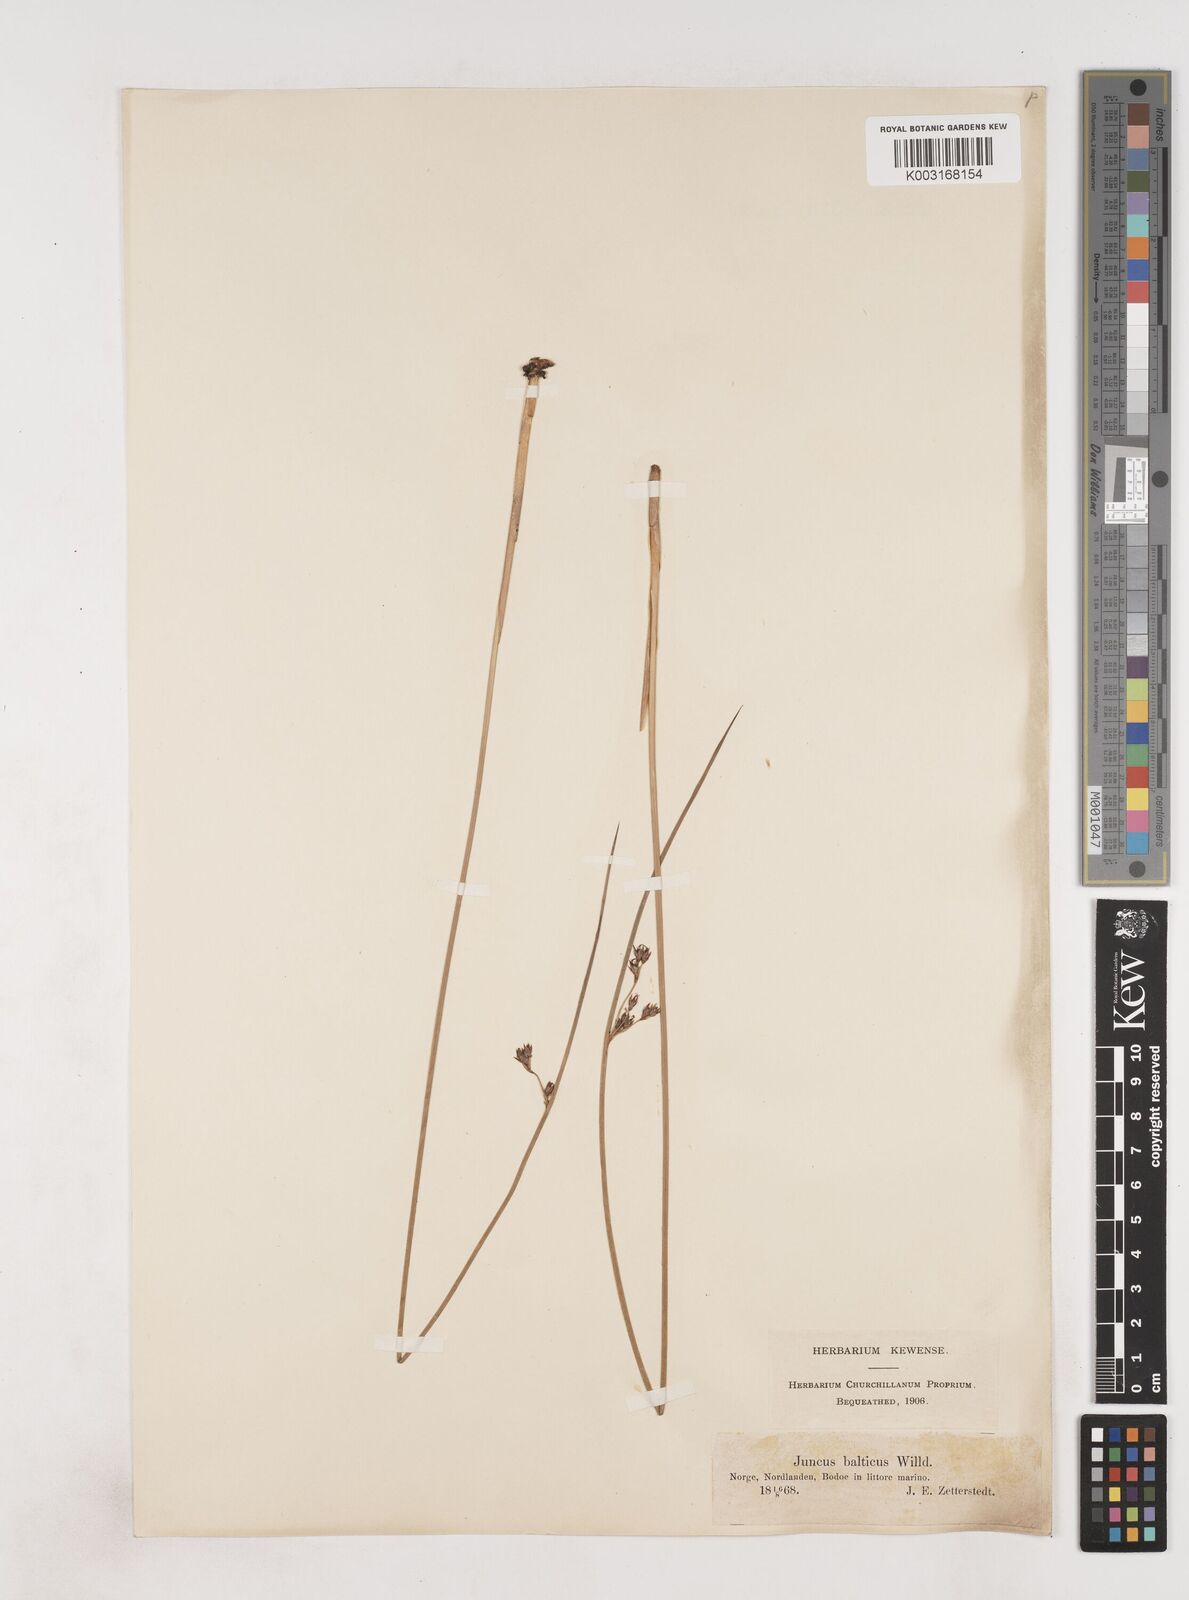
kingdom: Plantae
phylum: Tracheophyta
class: Liliopsida
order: Poales
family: Juncaceae
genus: Juncus
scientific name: Juncus balticus
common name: Baltic rush
